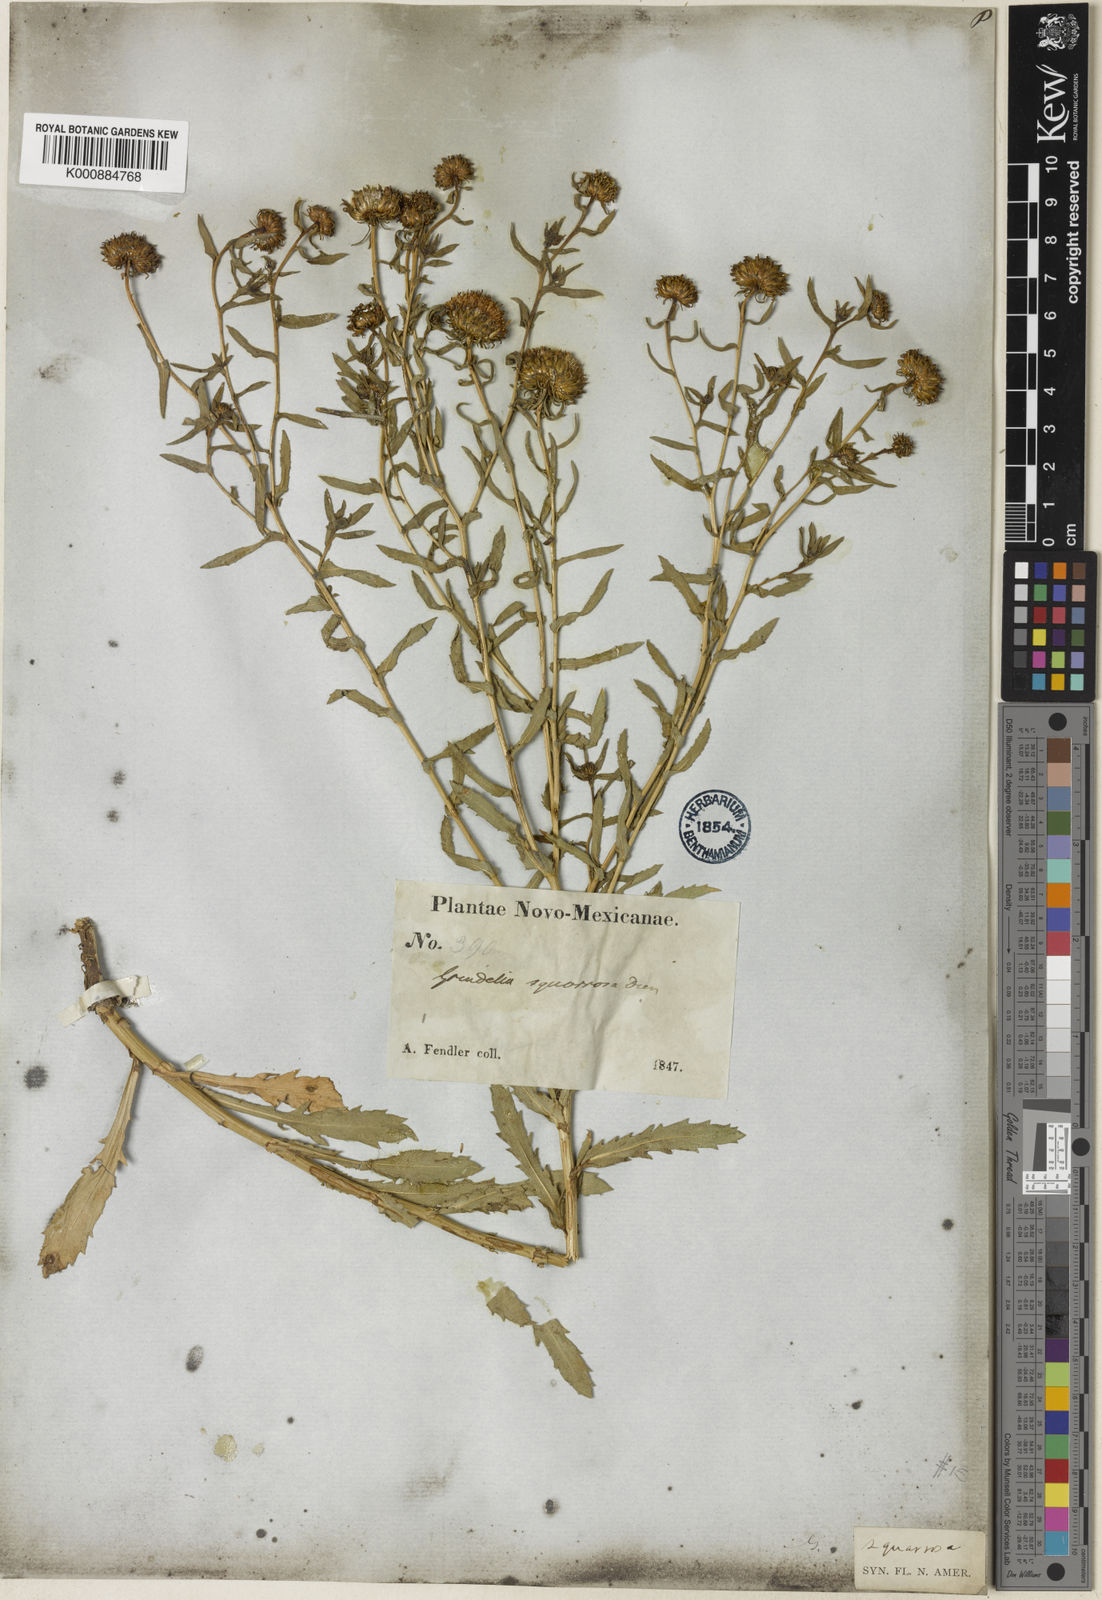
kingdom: Plantae
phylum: Tracheophyta
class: Magnoliopsida
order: Asterales
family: Asteraceae
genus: Grindelia
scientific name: Grindelia nuda
